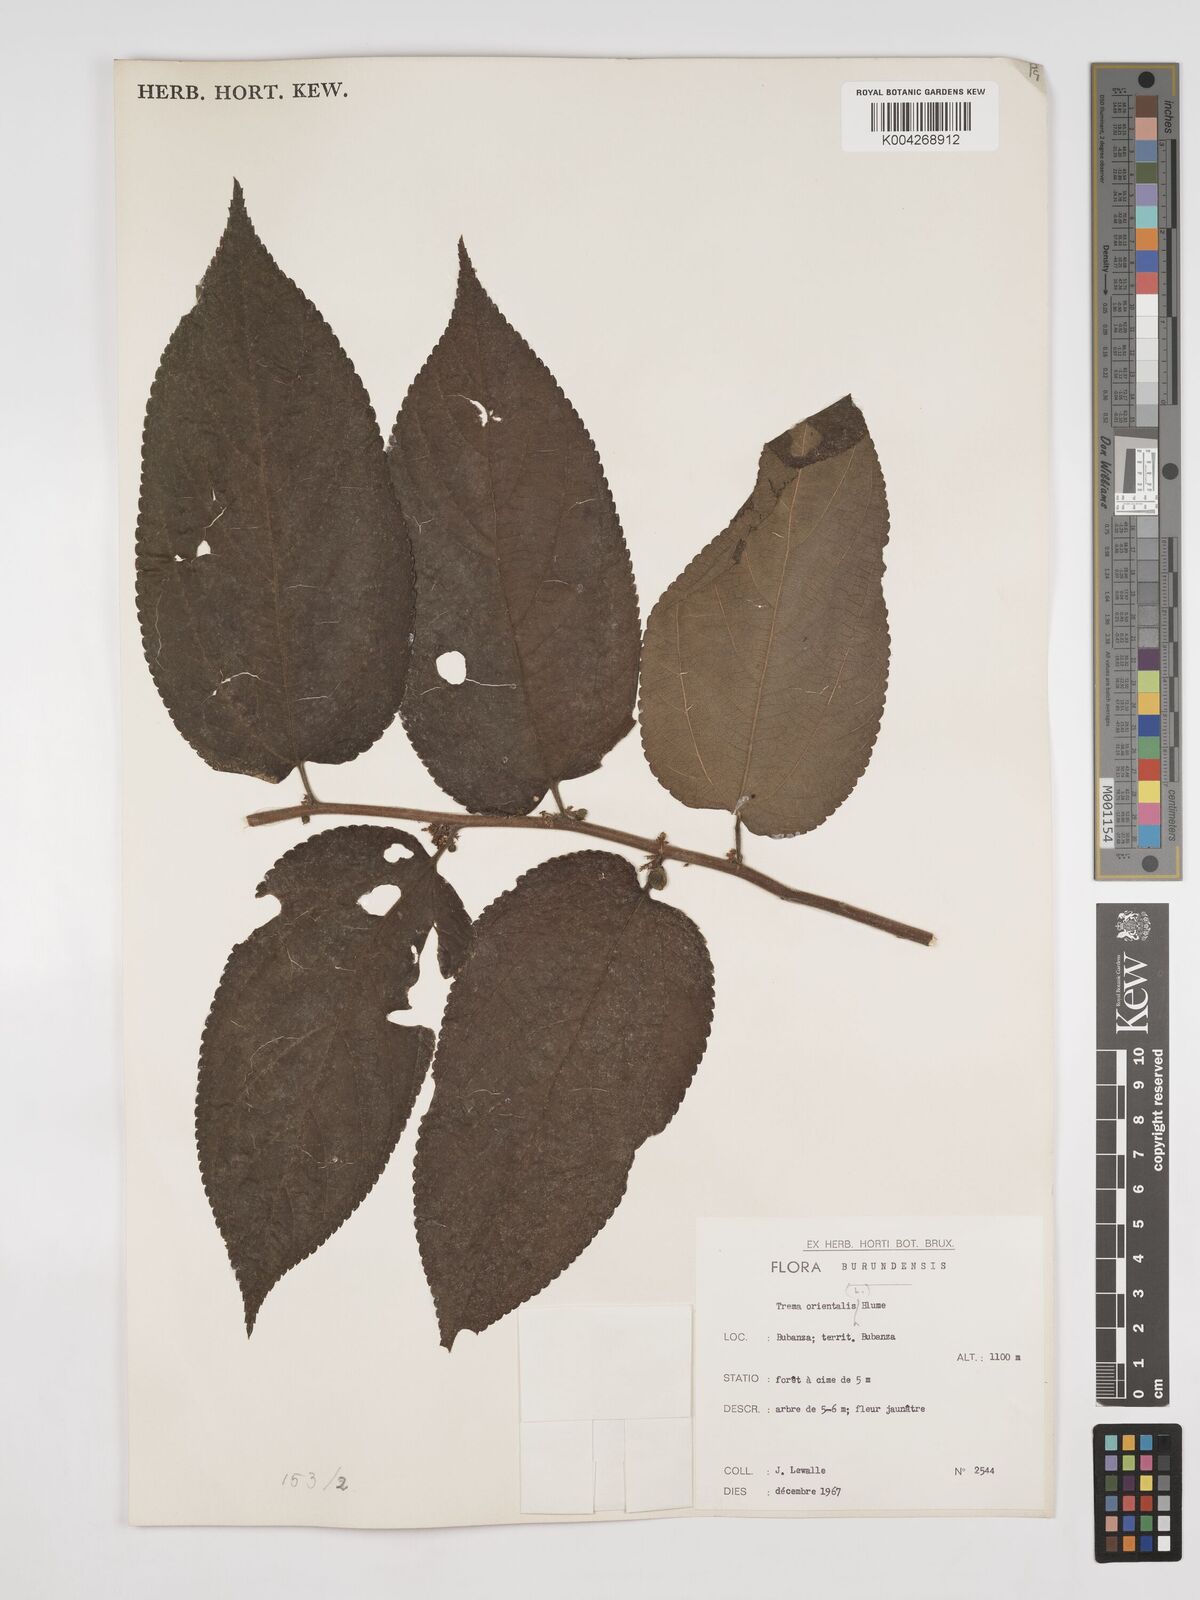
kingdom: Plantae
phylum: Tracheophyta
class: Magnoliopsida
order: Rosales
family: Cannabaceae
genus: Trema
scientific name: Trema orientale
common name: Indian charcoal tree
